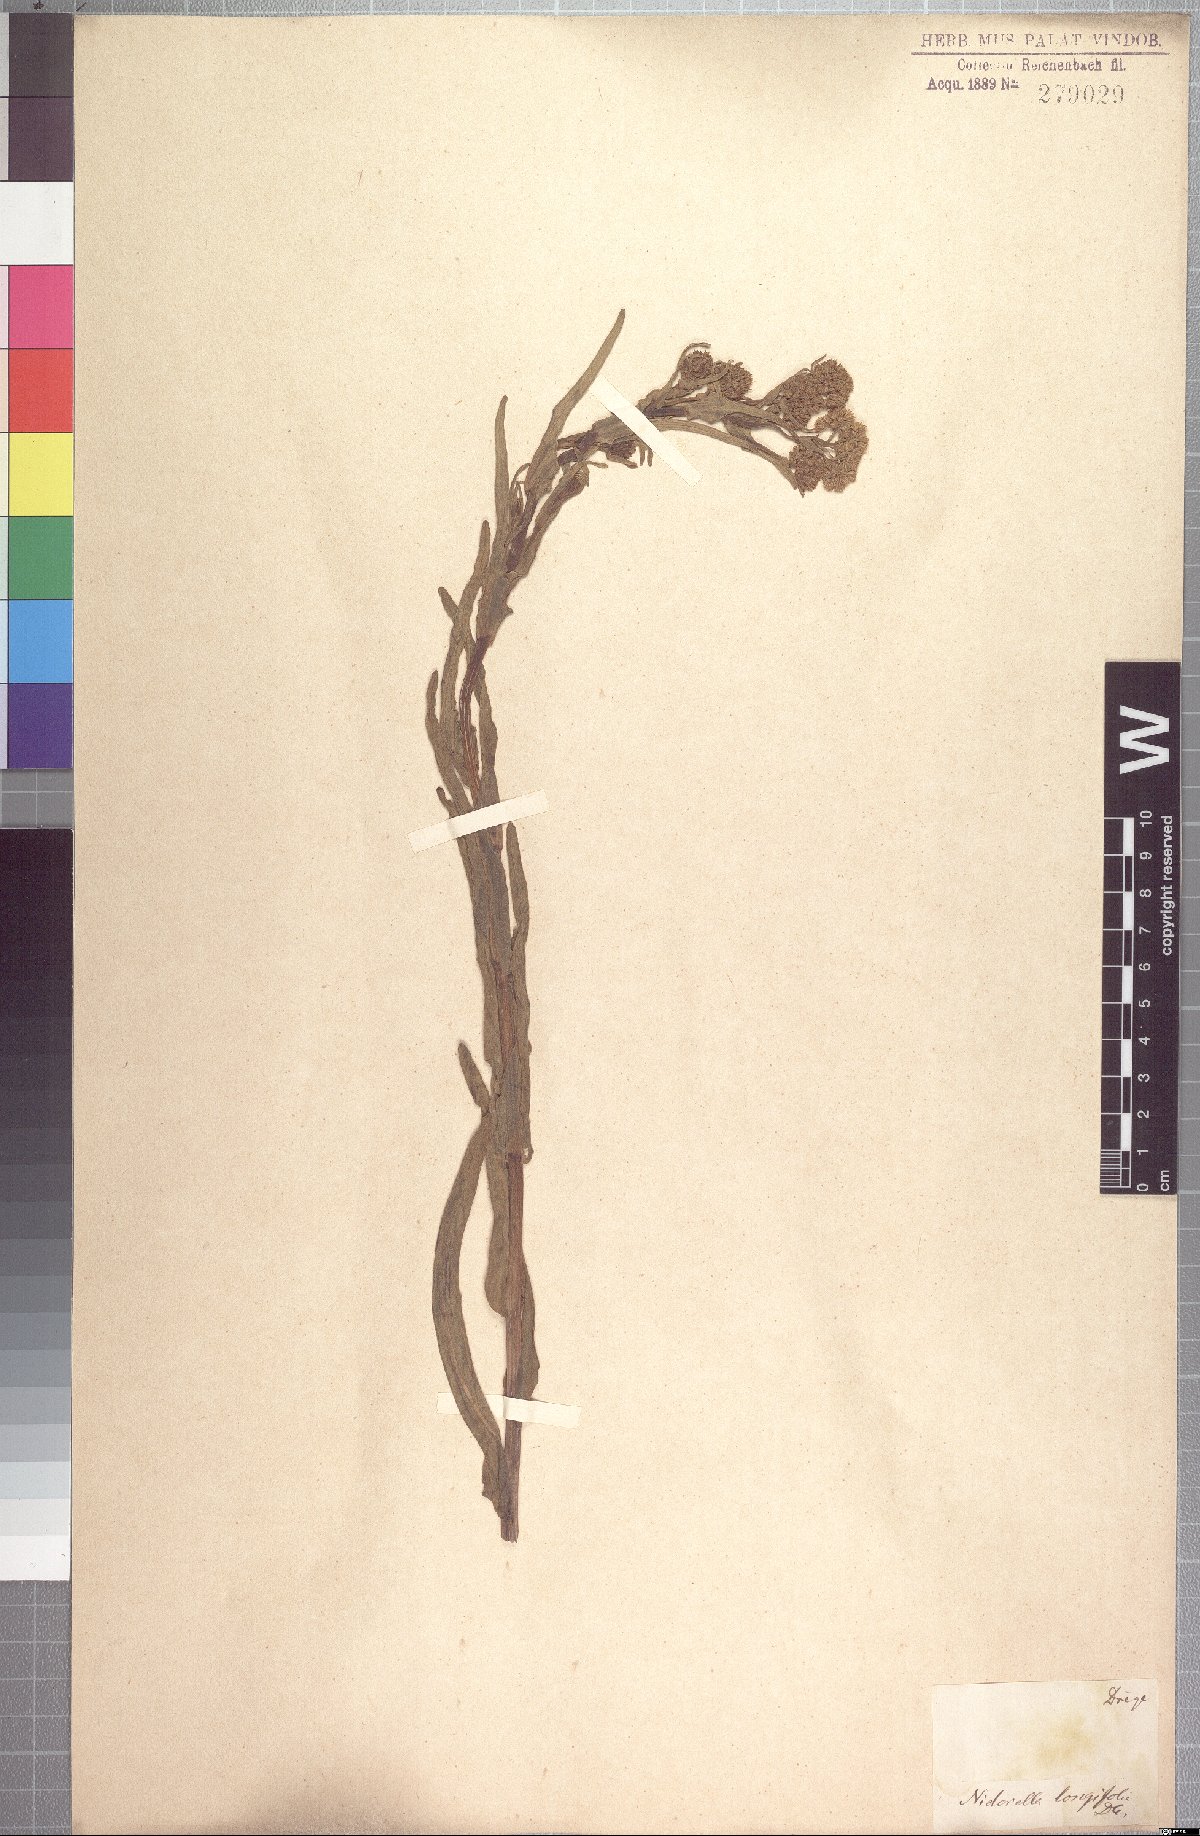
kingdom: Plantae
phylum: Tracheophyta
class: Magnoliopsida
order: Asterales
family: Asteraceae
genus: Nidorella
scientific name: Nidorella undulata
